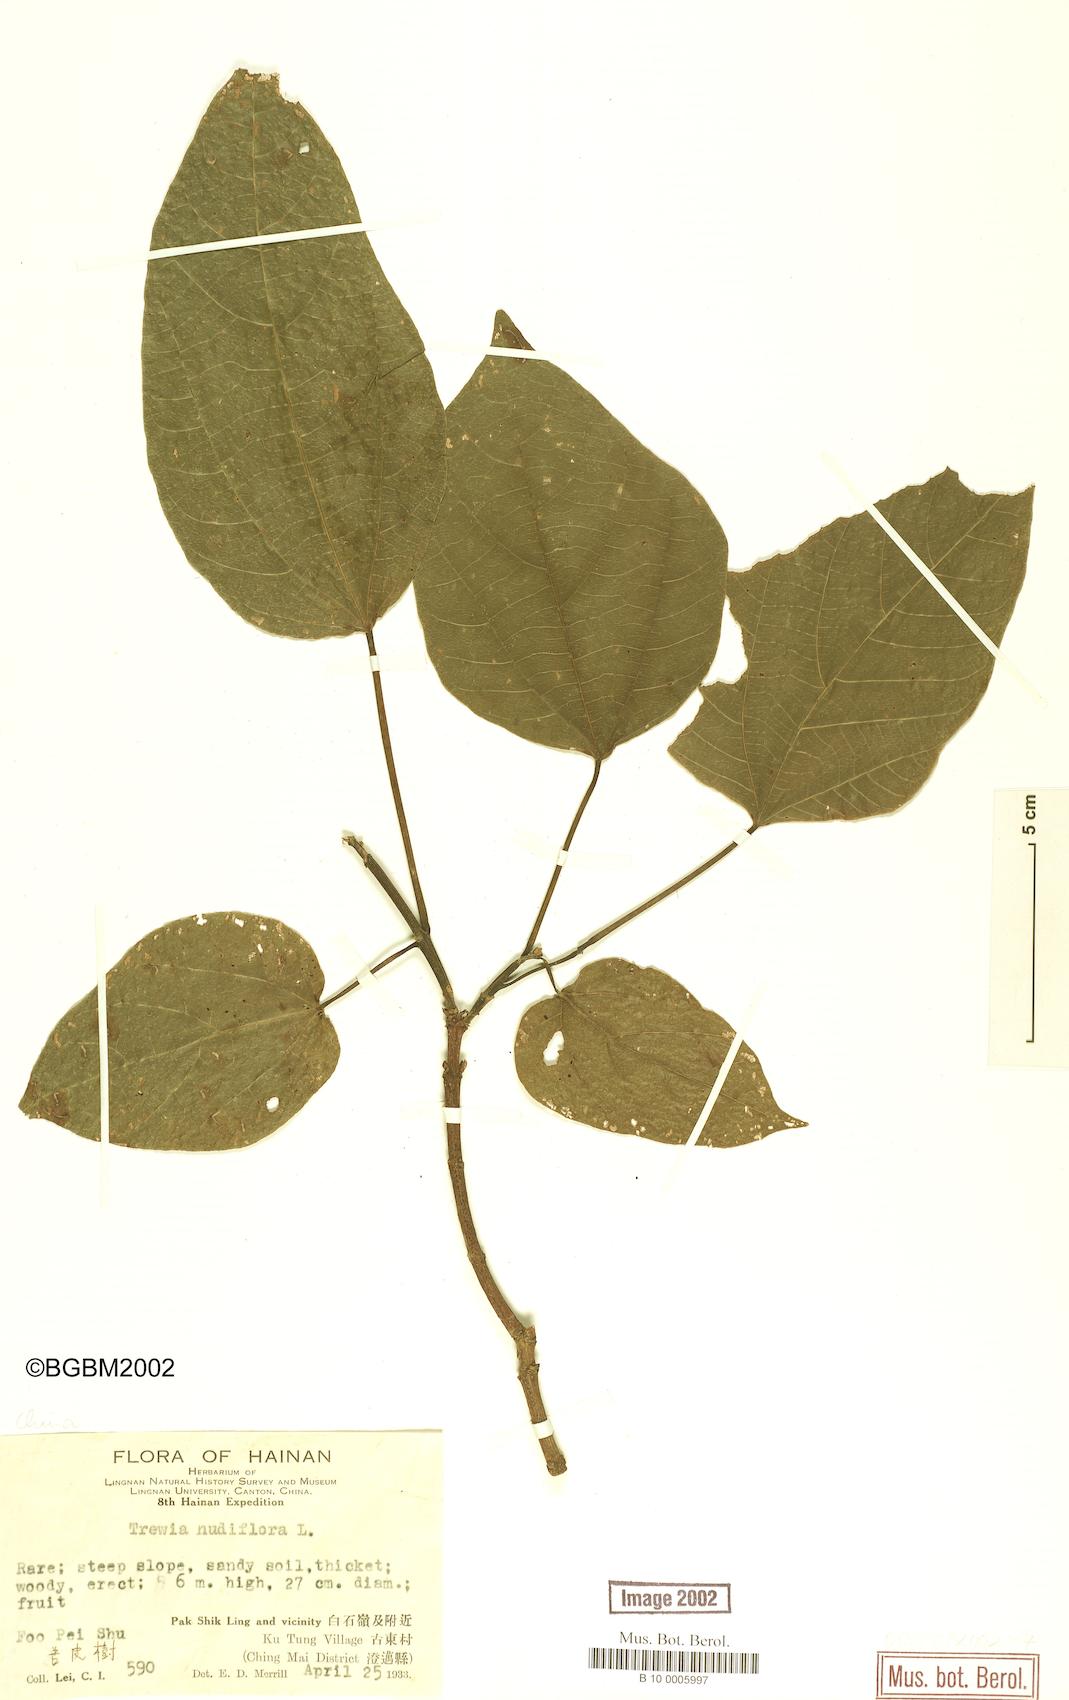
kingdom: Plantae
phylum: Tracheophyta
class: Magnoliopsida
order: Malpighiales
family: Euphorbiaceae
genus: Trewia
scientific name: Trewia nudiflora
